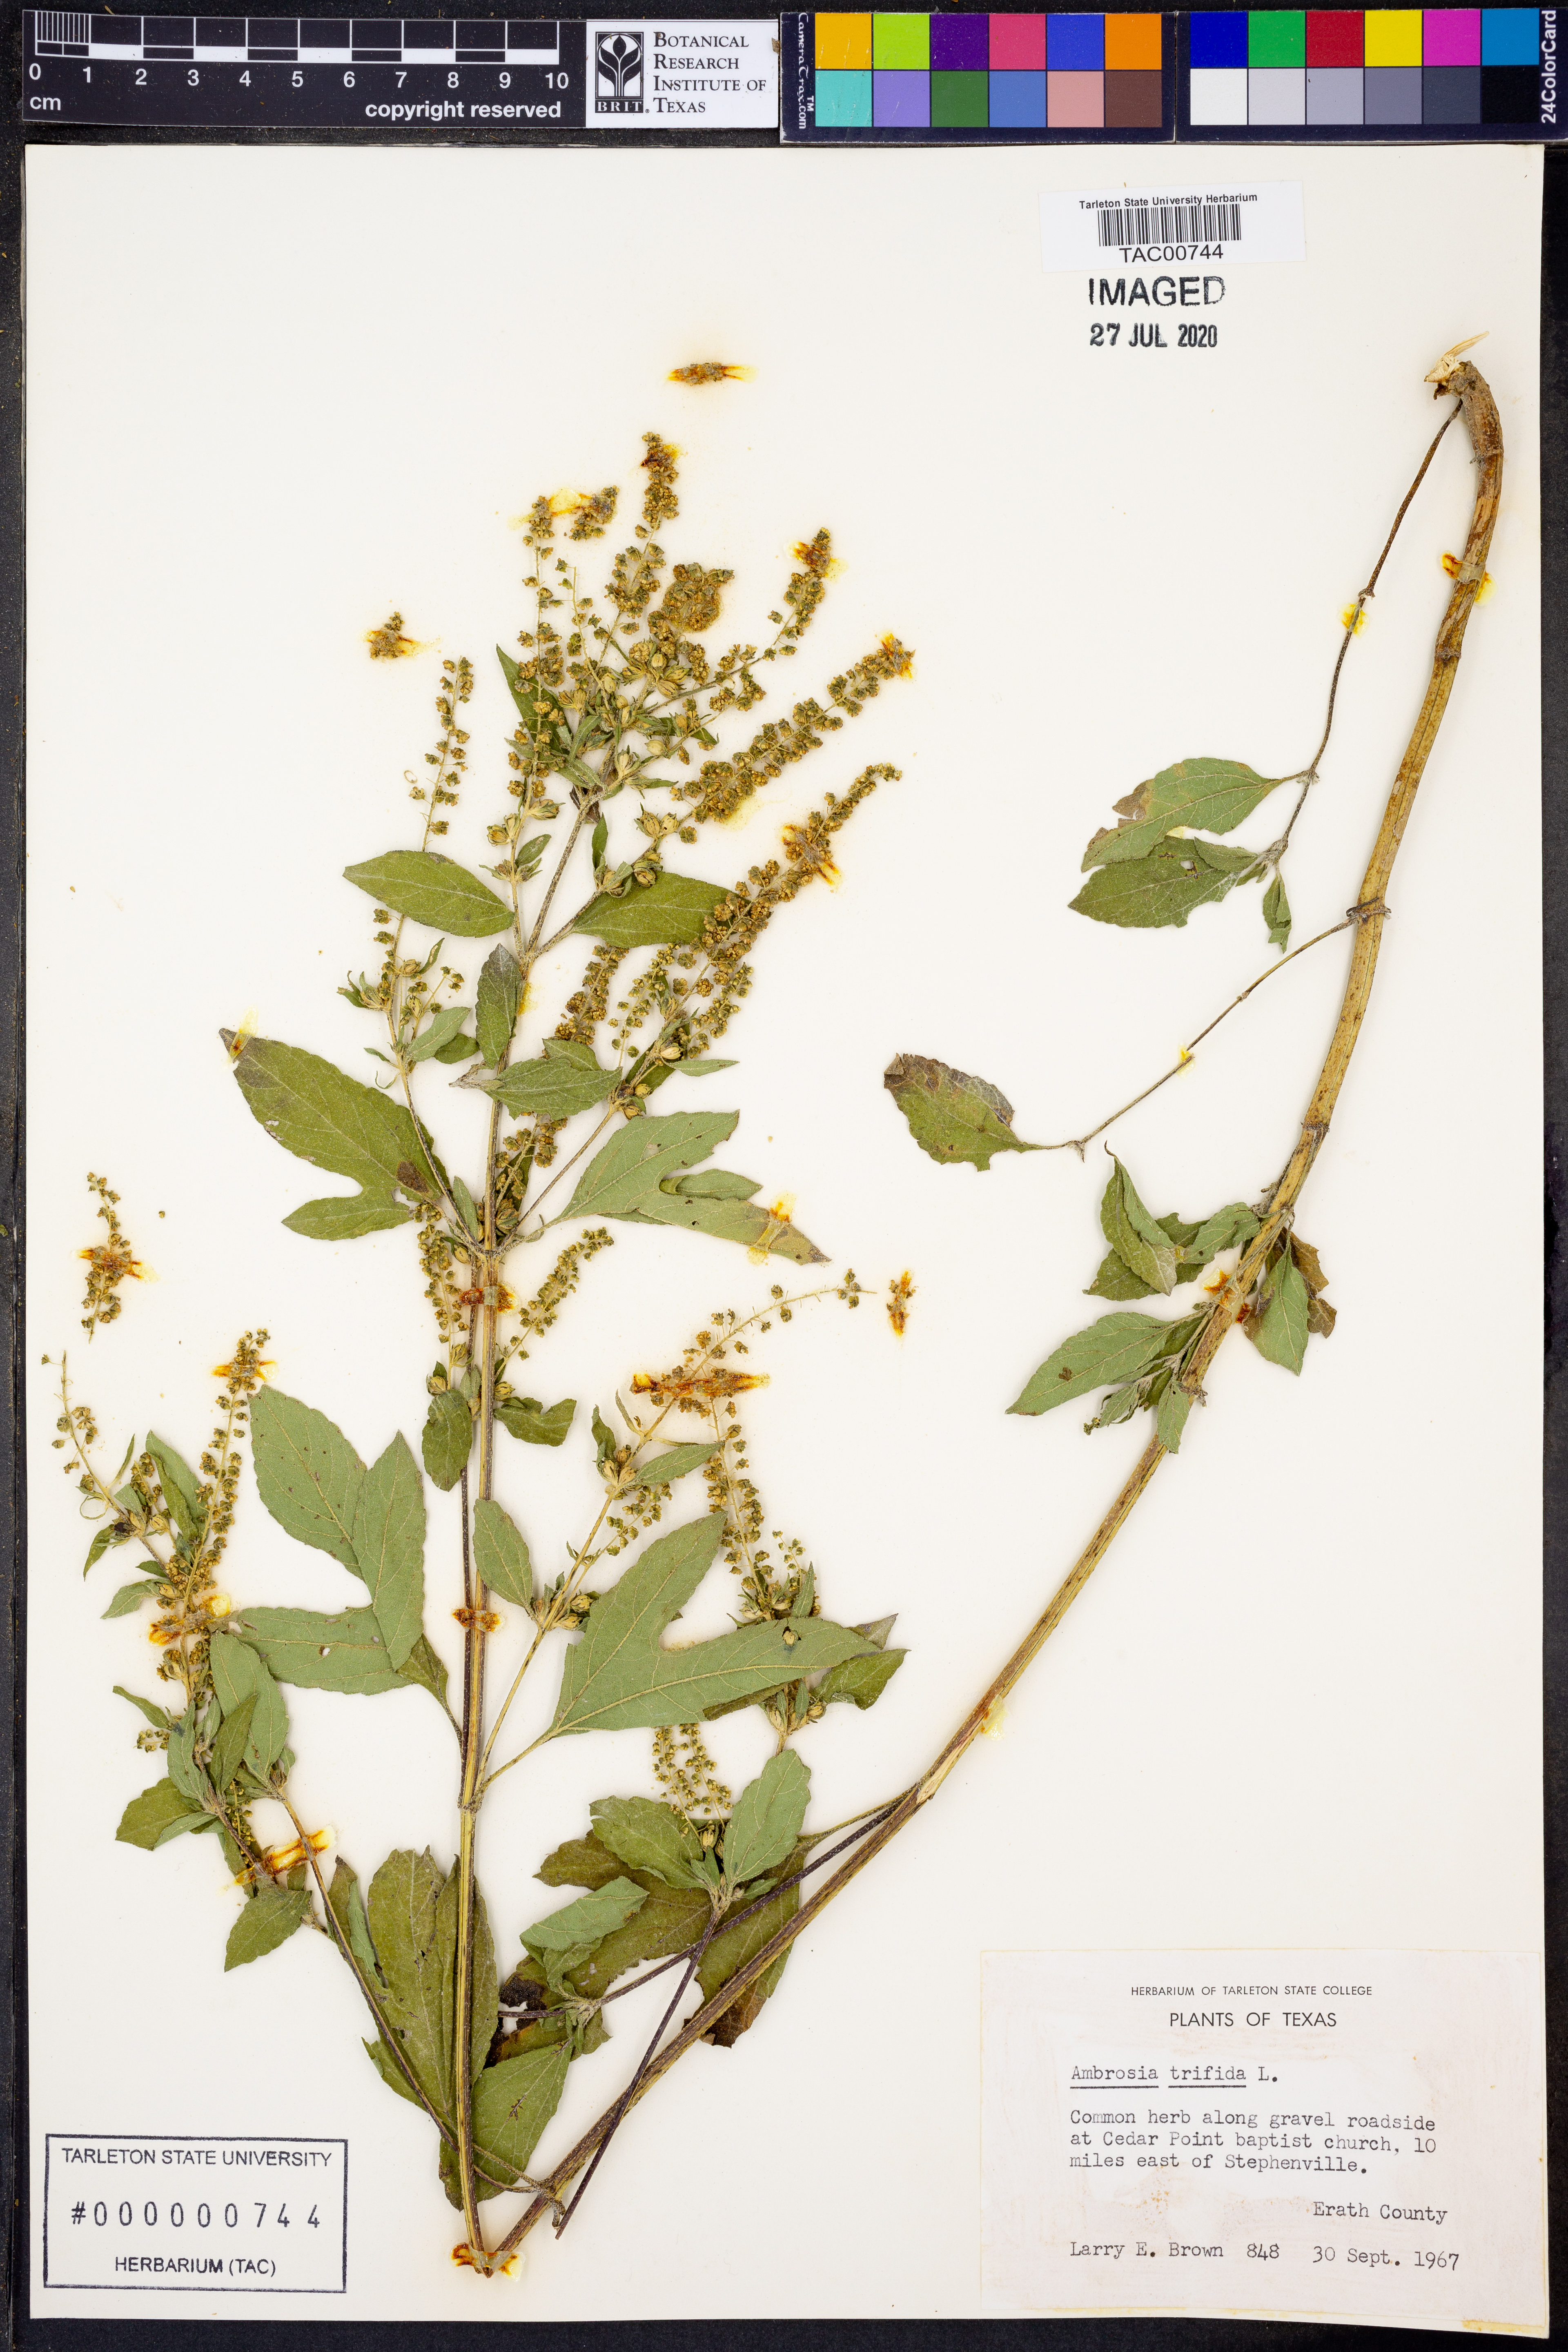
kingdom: Plantae
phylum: Tracheophyta
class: Magnoliopsida
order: Asterales
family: Asteraceae
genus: Ambrosia
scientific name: Ambrosia trifida
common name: Giant ragweed
